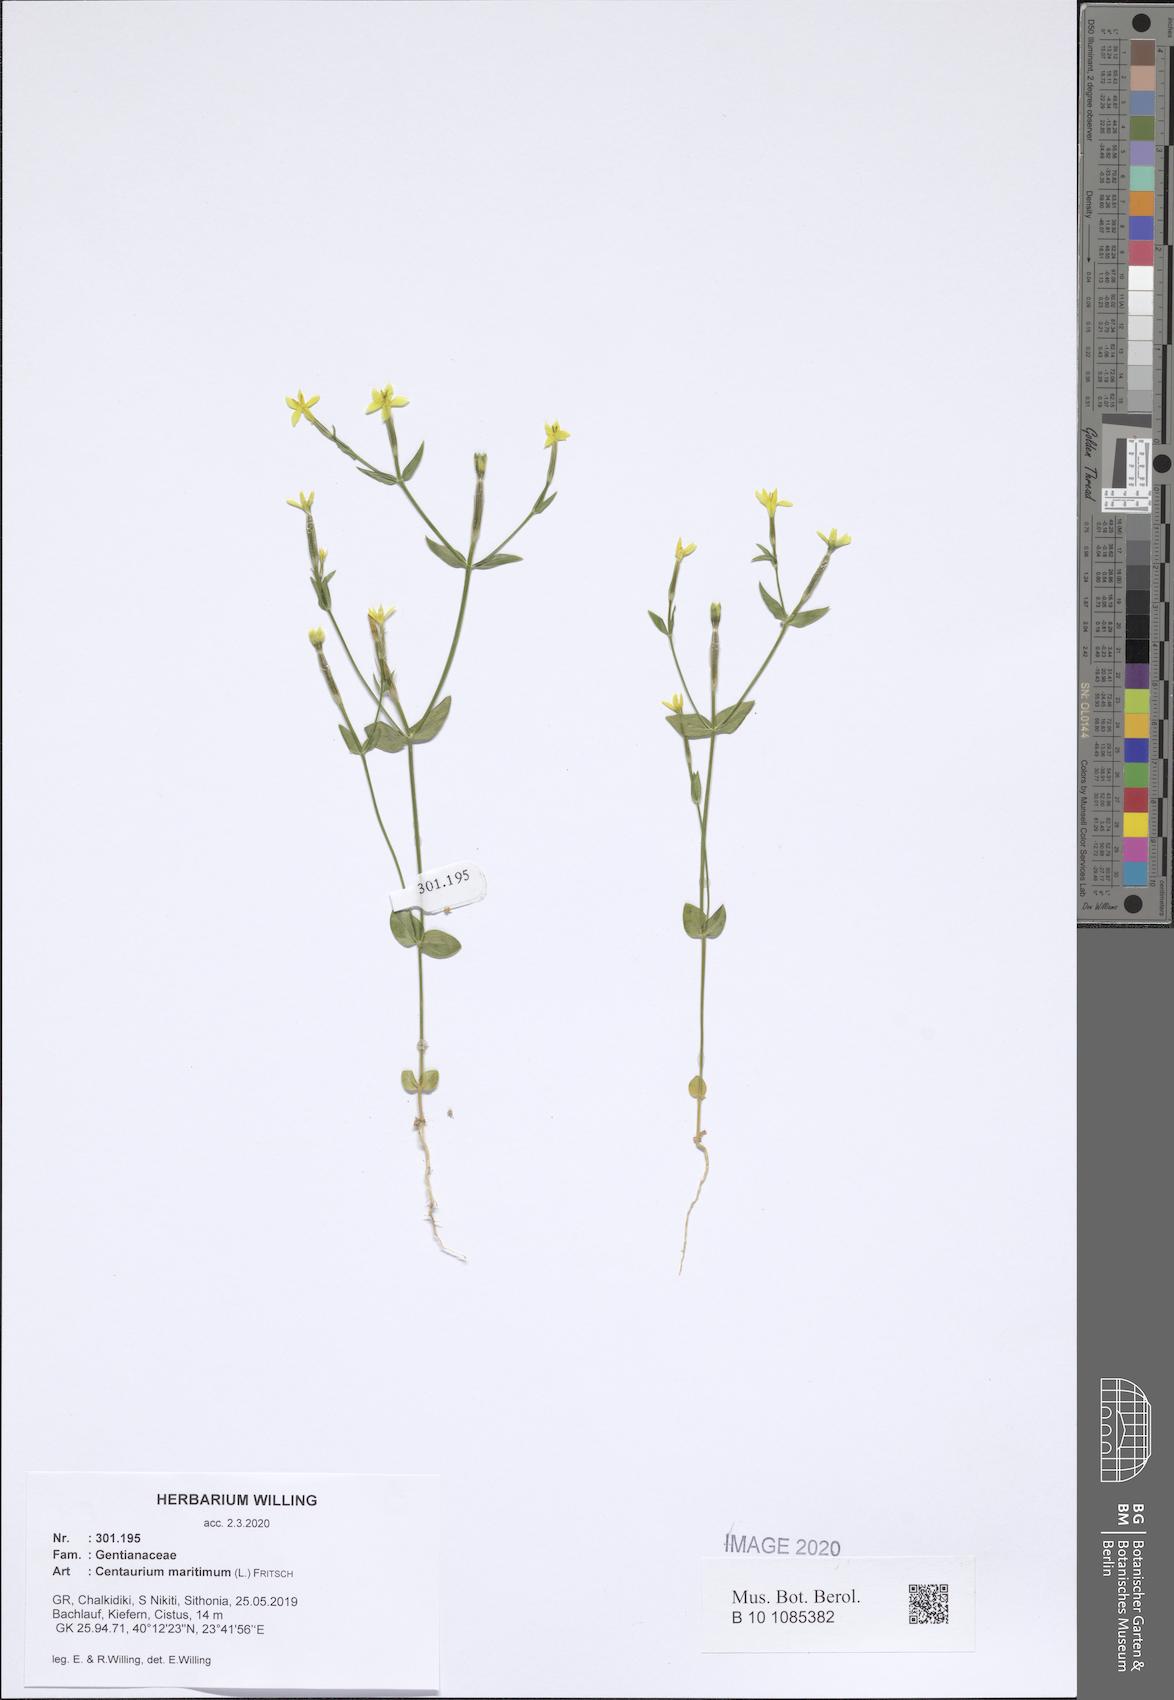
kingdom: Plantae
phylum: Tracheophyta
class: Magnoliopsida
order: Gentianales
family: Gentianaceae
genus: Centaurium
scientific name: Centaurium maritimum
